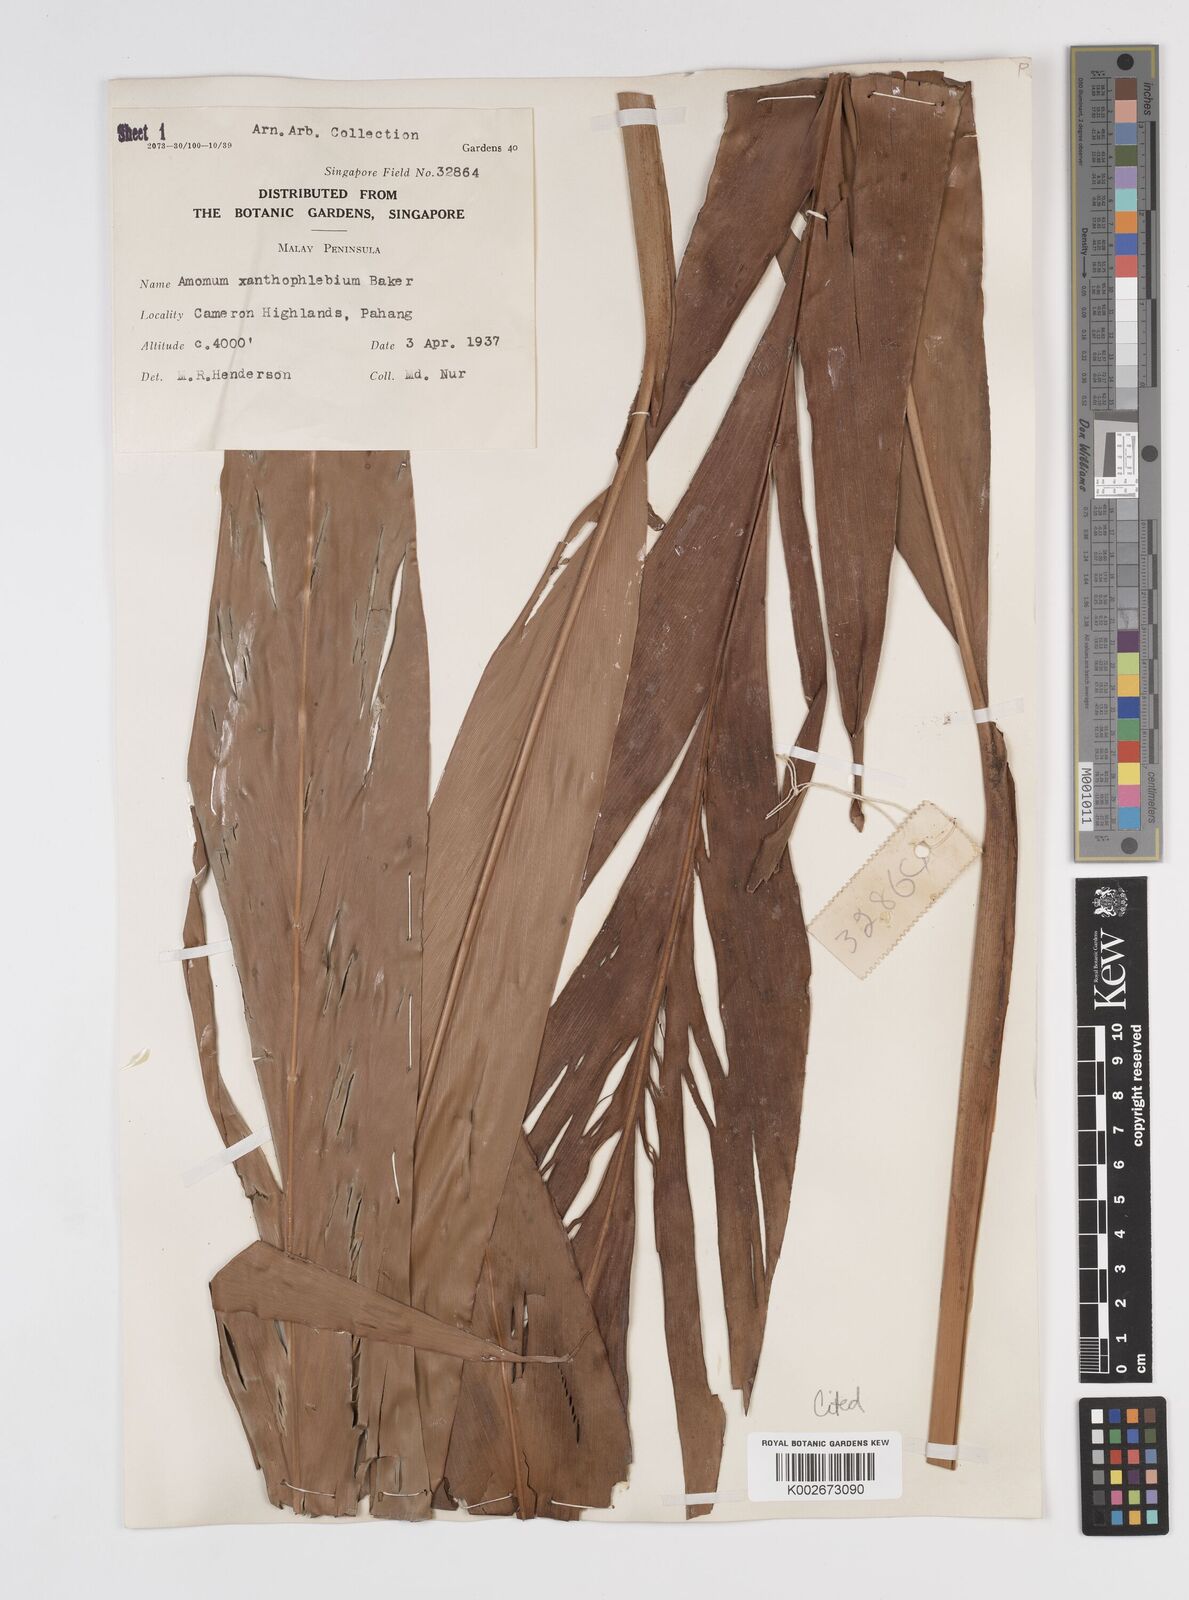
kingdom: Plantae
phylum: Tracheophyta
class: Liliopsida
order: Zingiberales
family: Zingiberaceae
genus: Conamomum
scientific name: Conamomum xanthophlebium
